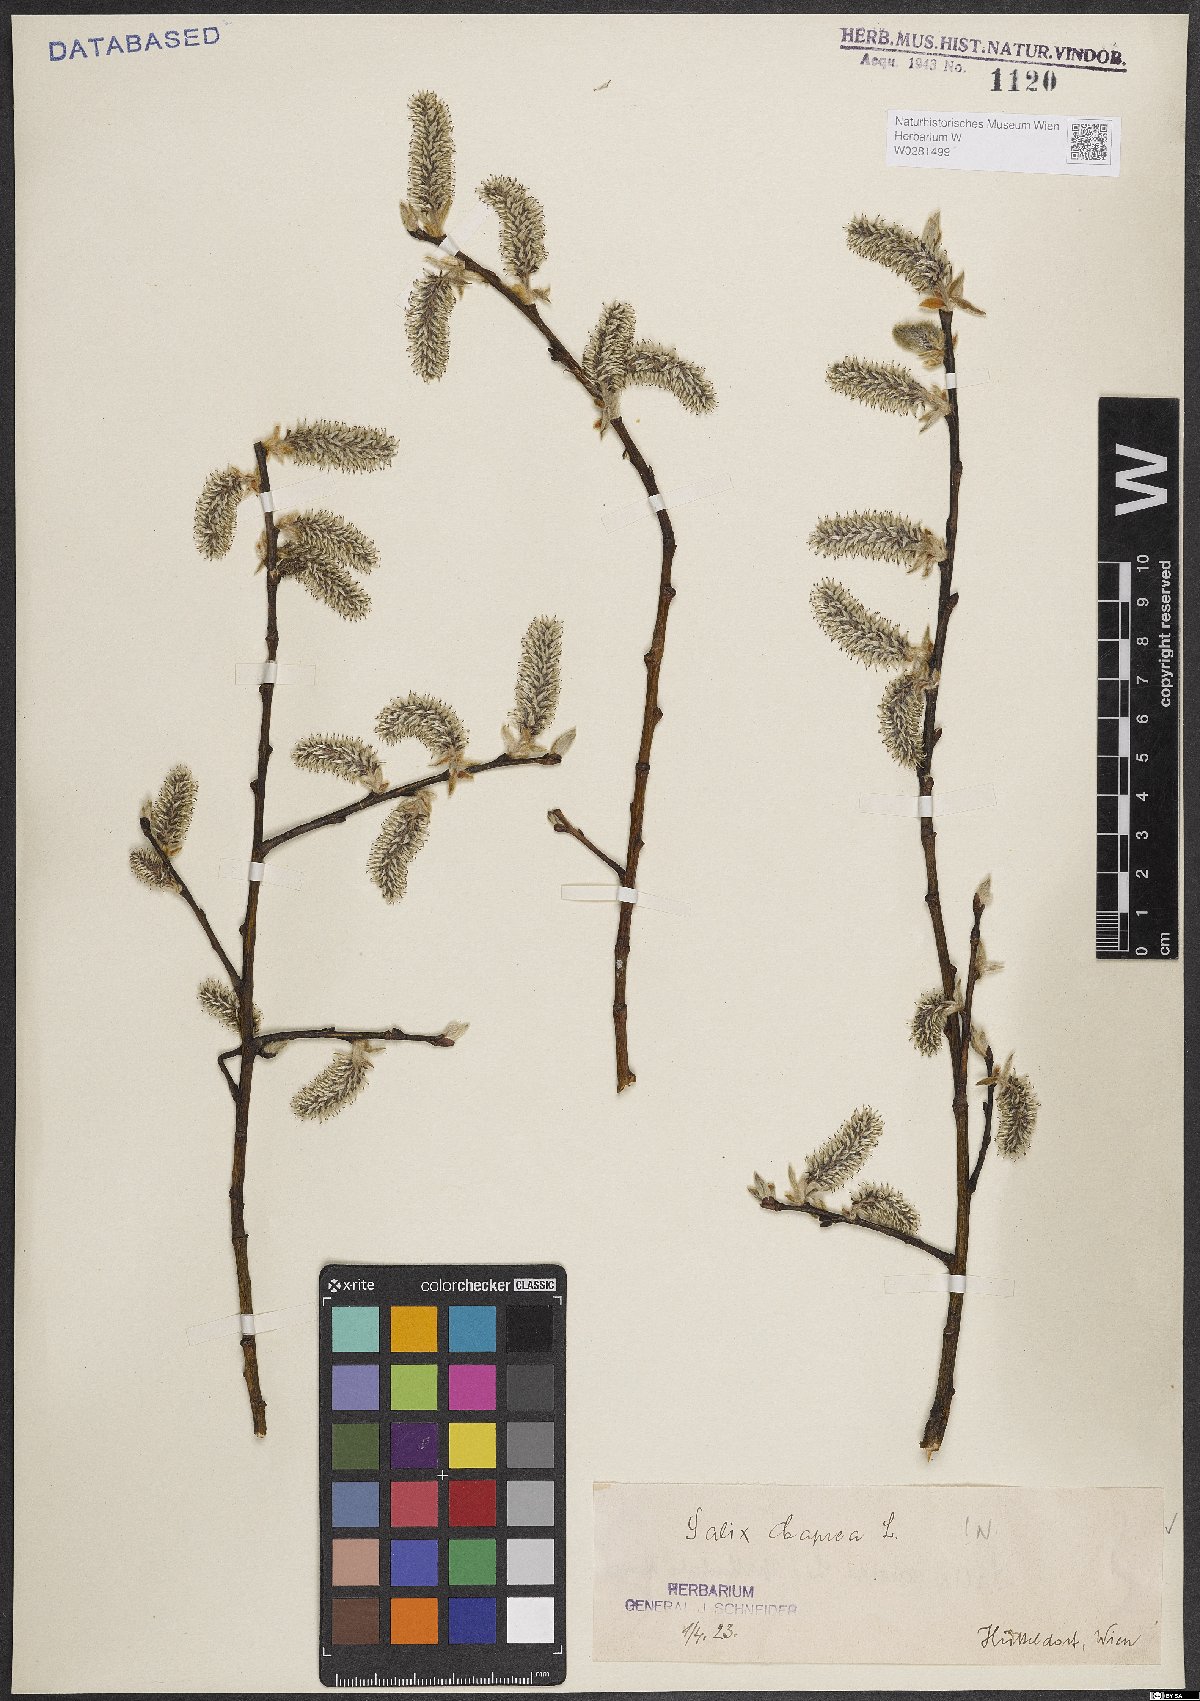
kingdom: Plantae
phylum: Tracheophyta
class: Magnoliopsida
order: Malpighiales
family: Salicaceae
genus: Salix
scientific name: Salix caprea
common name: Goat willow
